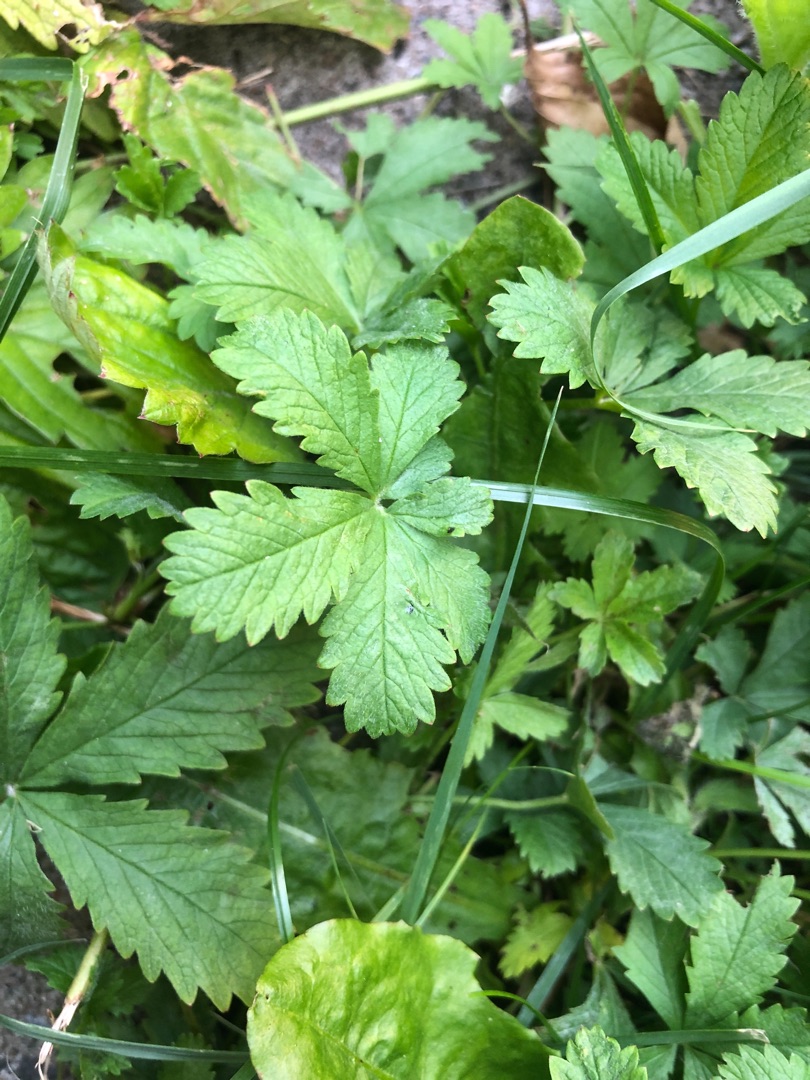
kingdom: Plantae
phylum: Tracheophyta
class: Magnoliopsida
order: Rosales
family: Rosaceae
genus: Potentilla
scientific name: Potentilla reptans
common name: Krybende potentil
